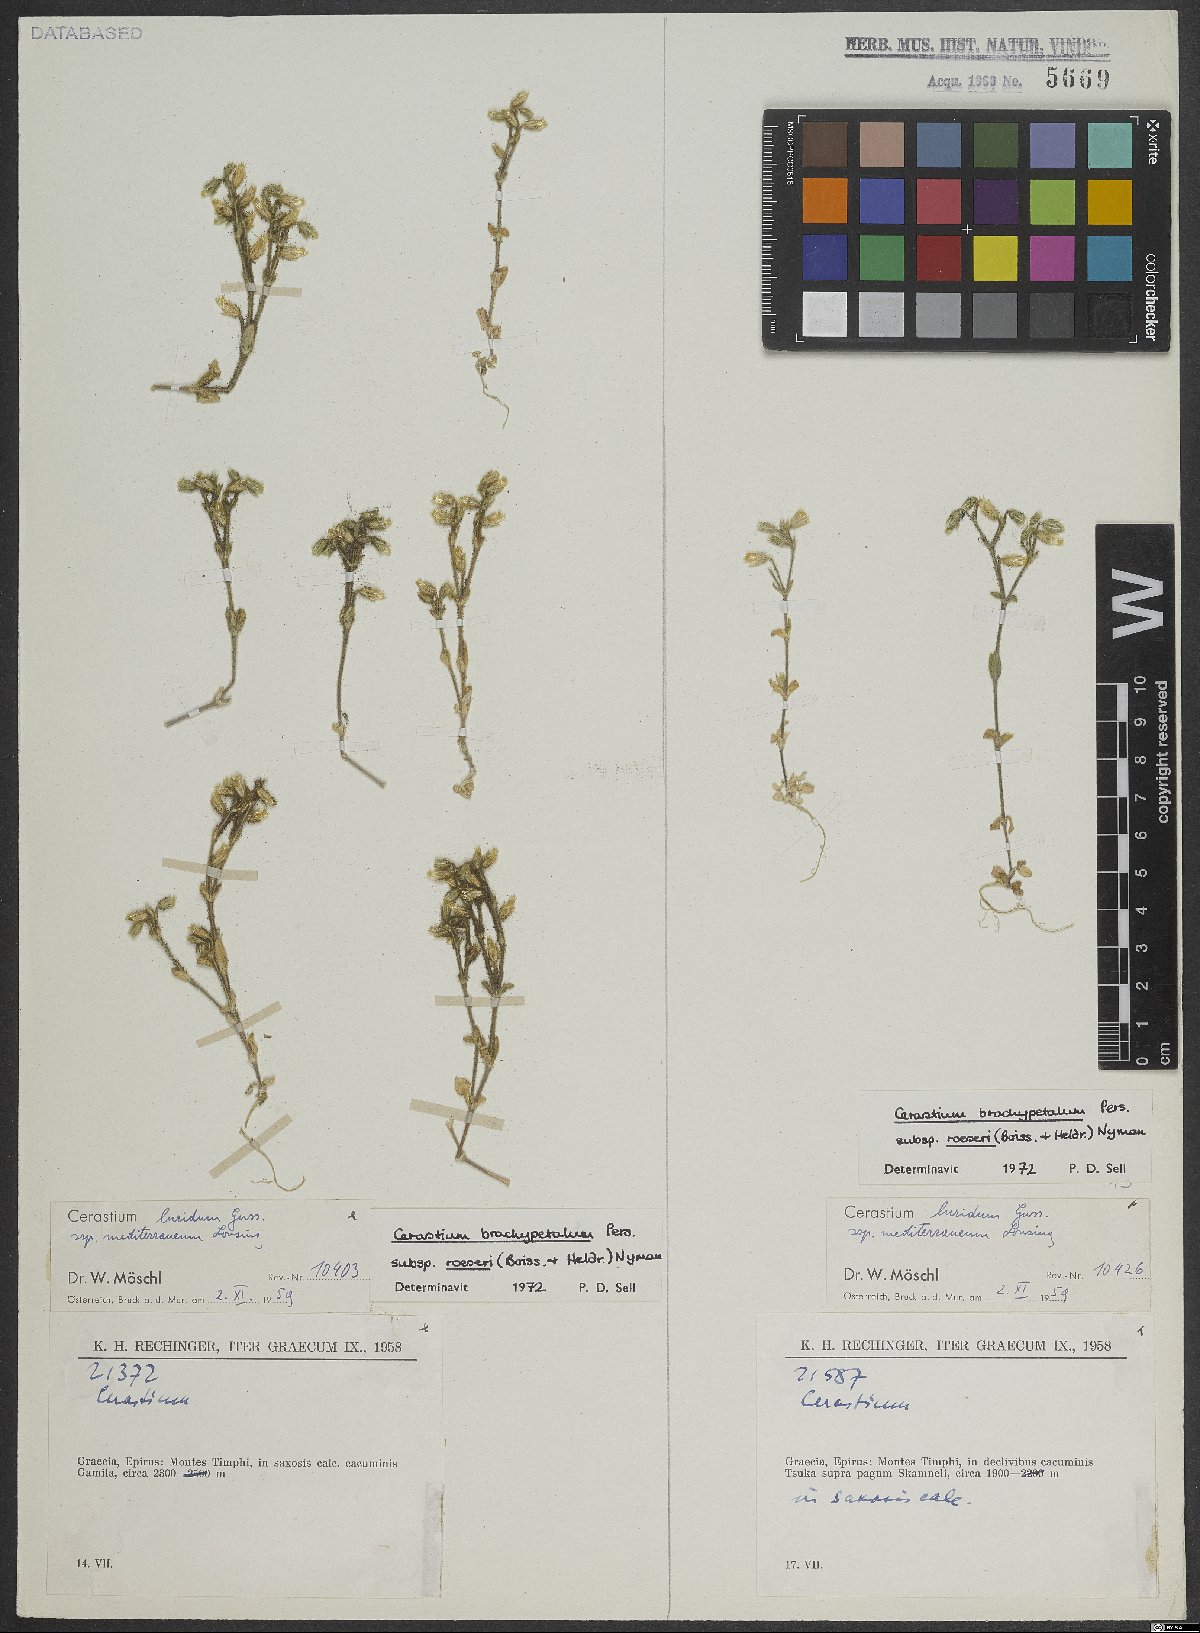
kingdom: Plantae
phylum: Tracheophyta
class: Magnoliopsida
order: Caryophyllales
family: Caryophyllaceae
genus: Cerastium
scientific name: Cerastium brachypetalum
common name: Grey mouse-ear
